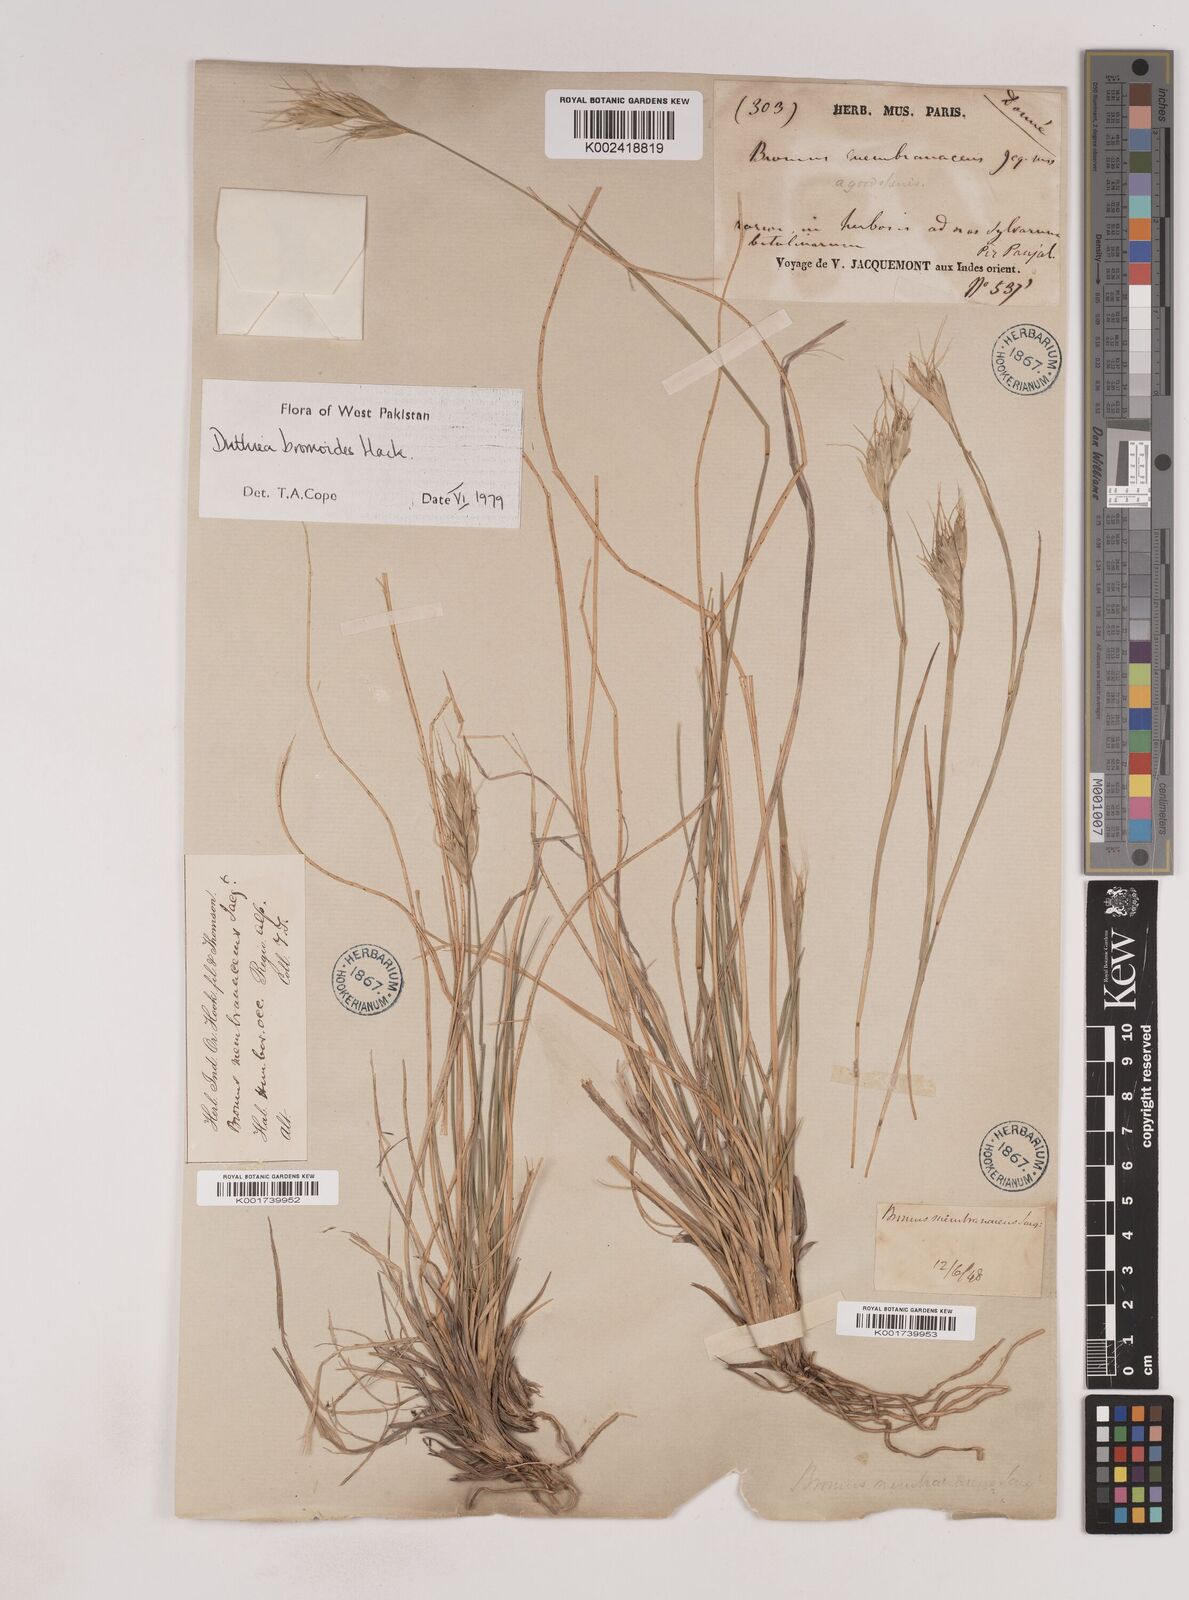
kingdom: Plantae
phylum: Tracheophyta
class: Liliopsida
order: Poales
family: Poaceae
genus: Duthiea
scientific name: Duthiea bromoides
